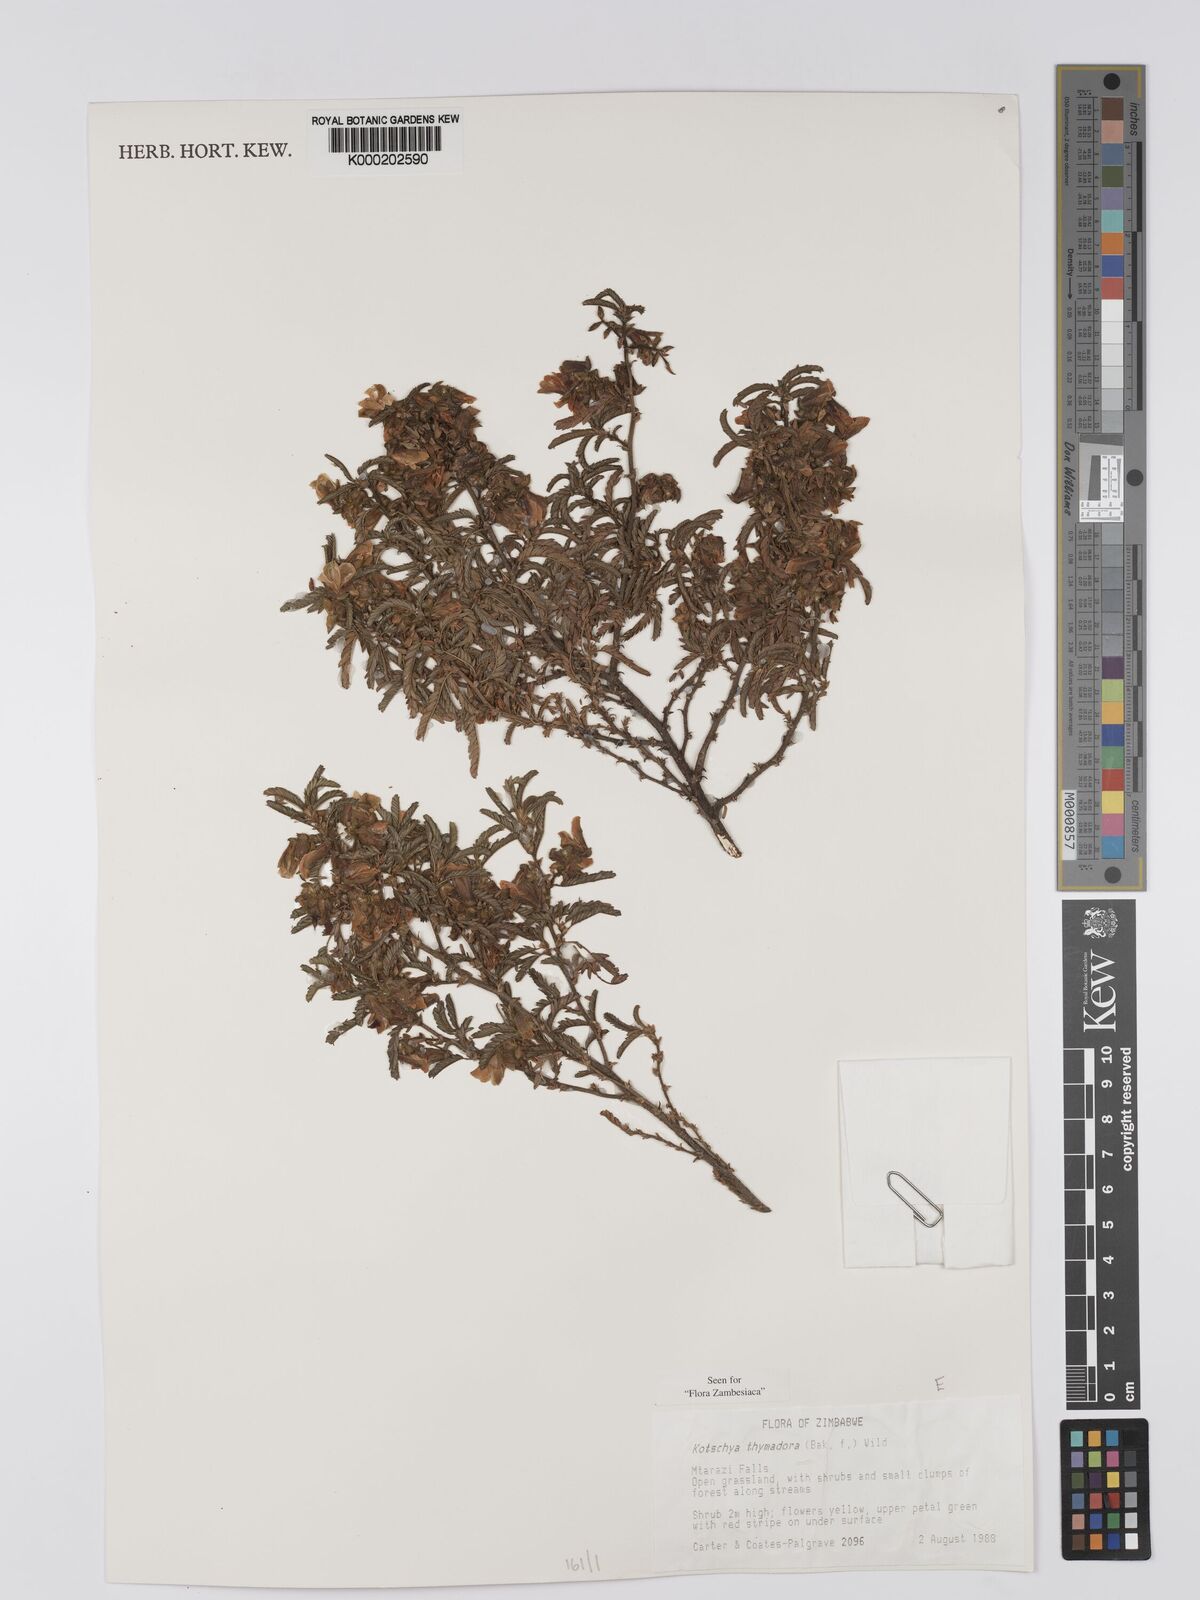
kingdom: Plantae
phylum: Tracheophyta
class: Magnoliopsida
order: Fabales
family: Fabaceae
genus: Kotschya
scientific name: Kotschya thymodora
